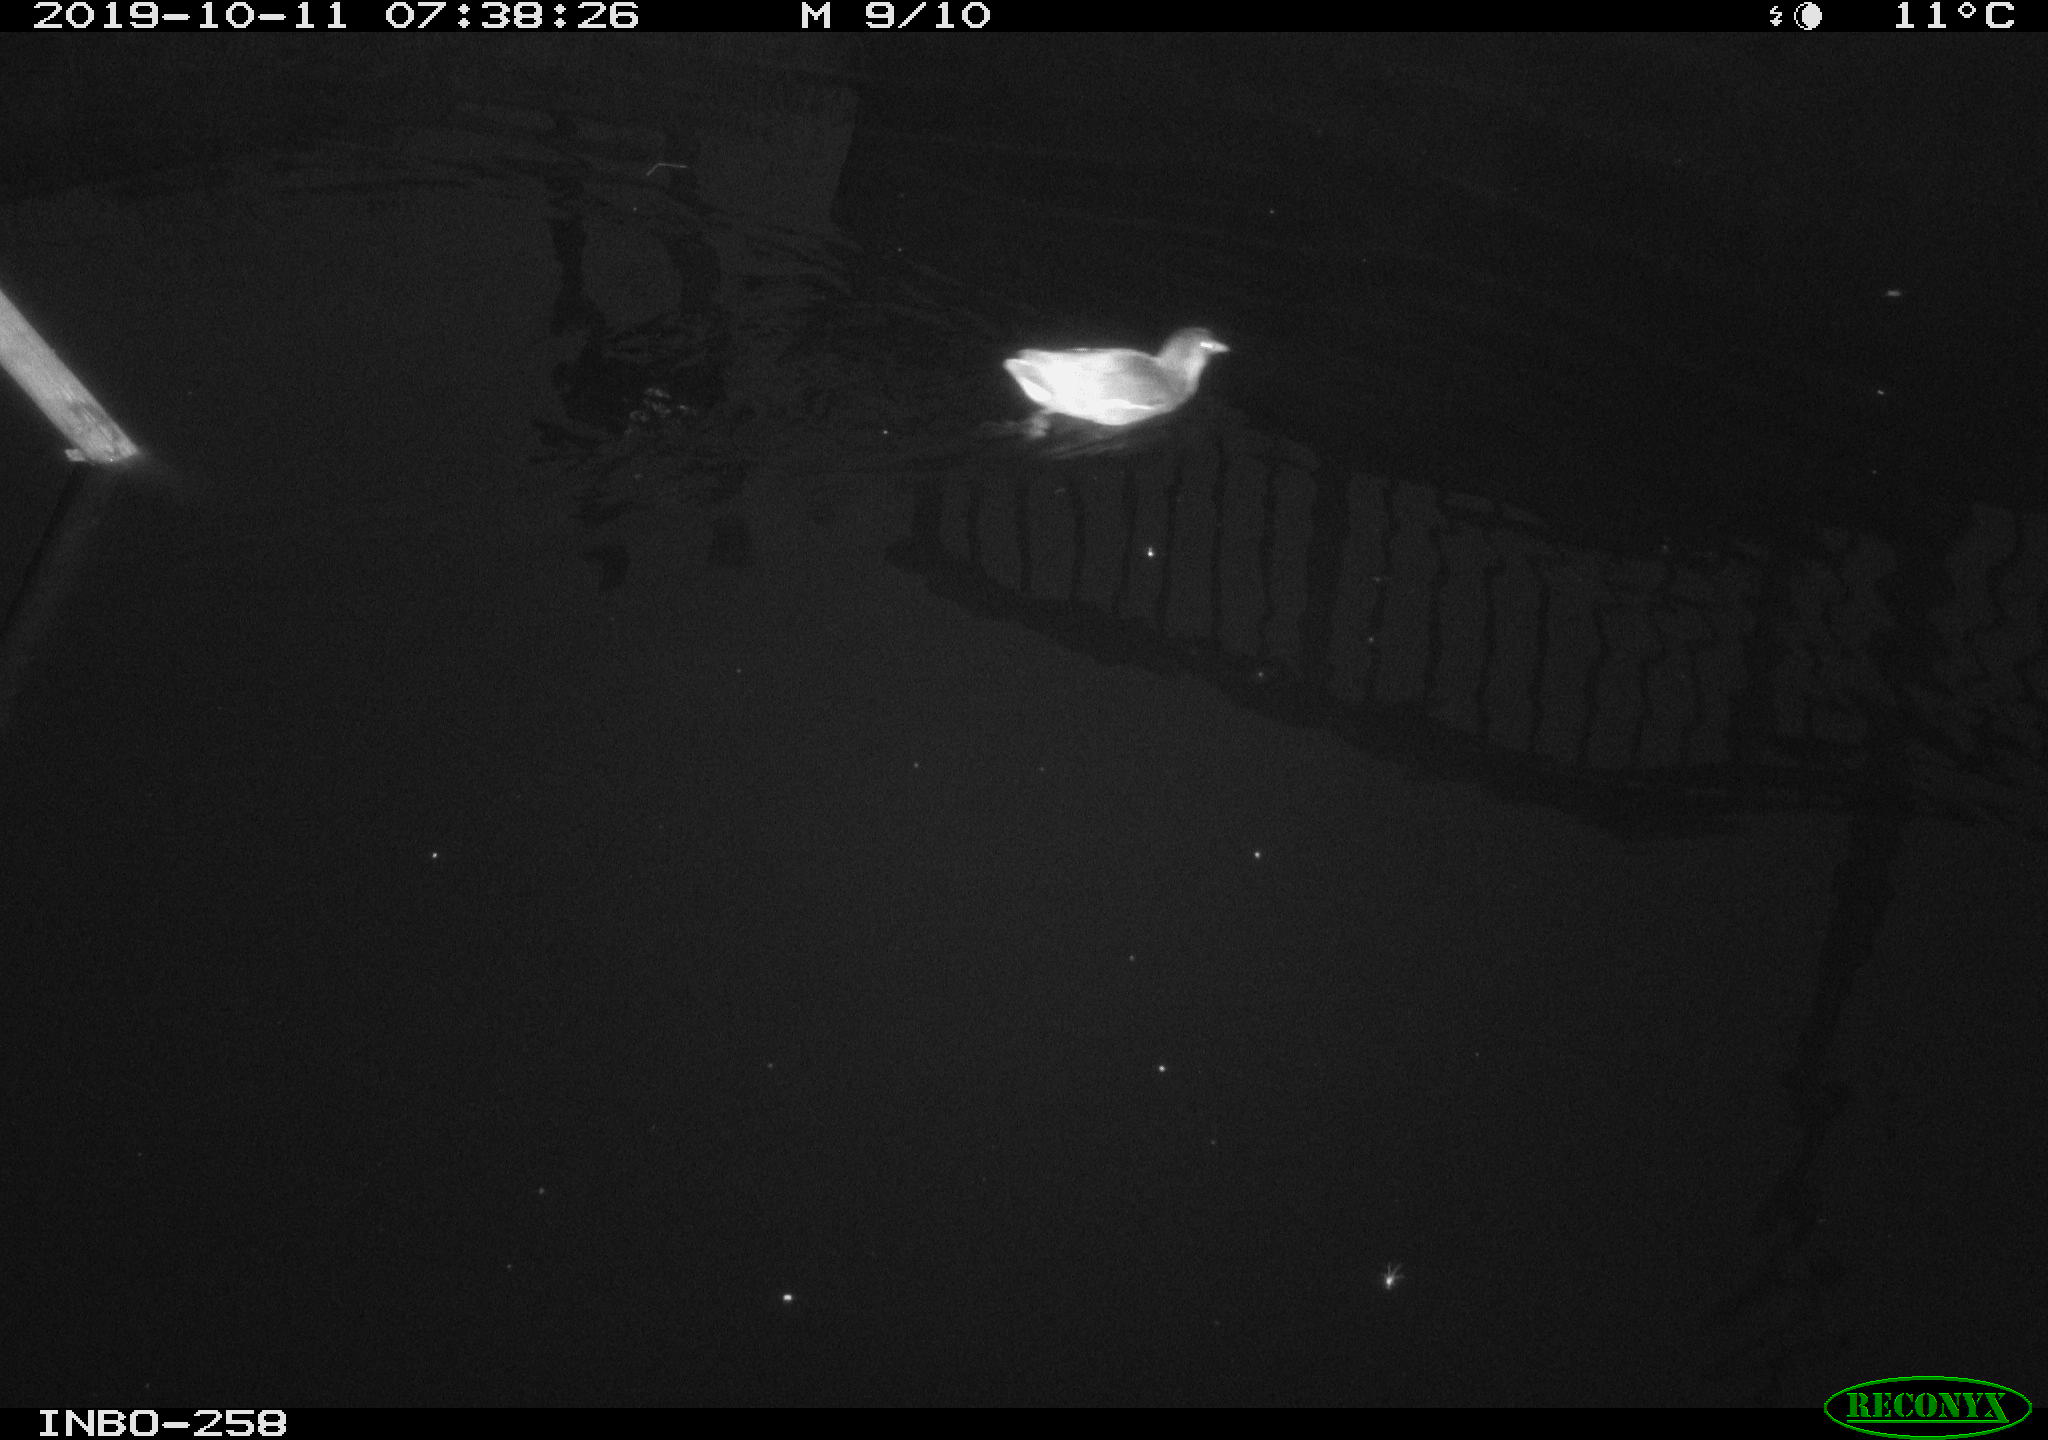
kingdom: Animalia
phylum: Chordata
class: Aves
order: Gruiformes
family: Rallidae
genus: Gallinula
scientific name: Gallinula chloropus
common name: Common moorhen
